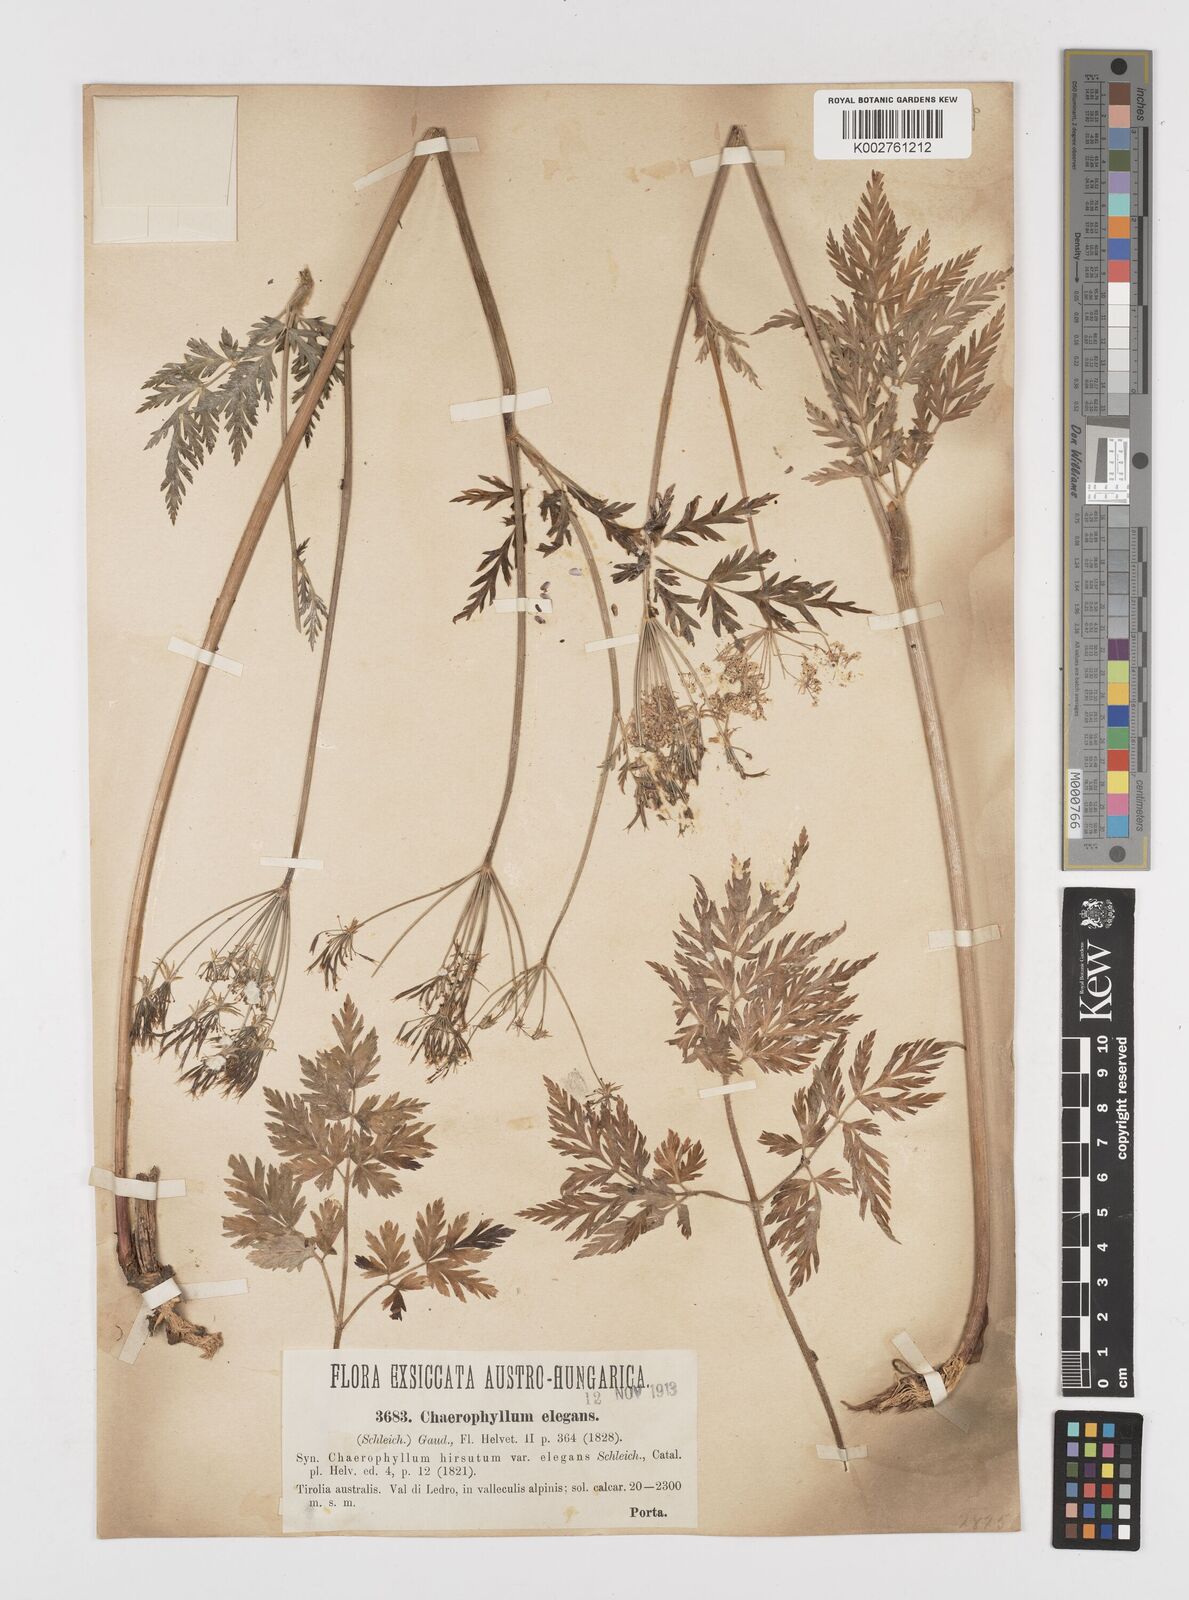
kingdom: Plantae
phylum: Tracheophyta
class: Magnoliopsida
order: Apiales
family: Apiaceae
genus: Chaerophyllum
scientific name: Chaerophyllum elegans
